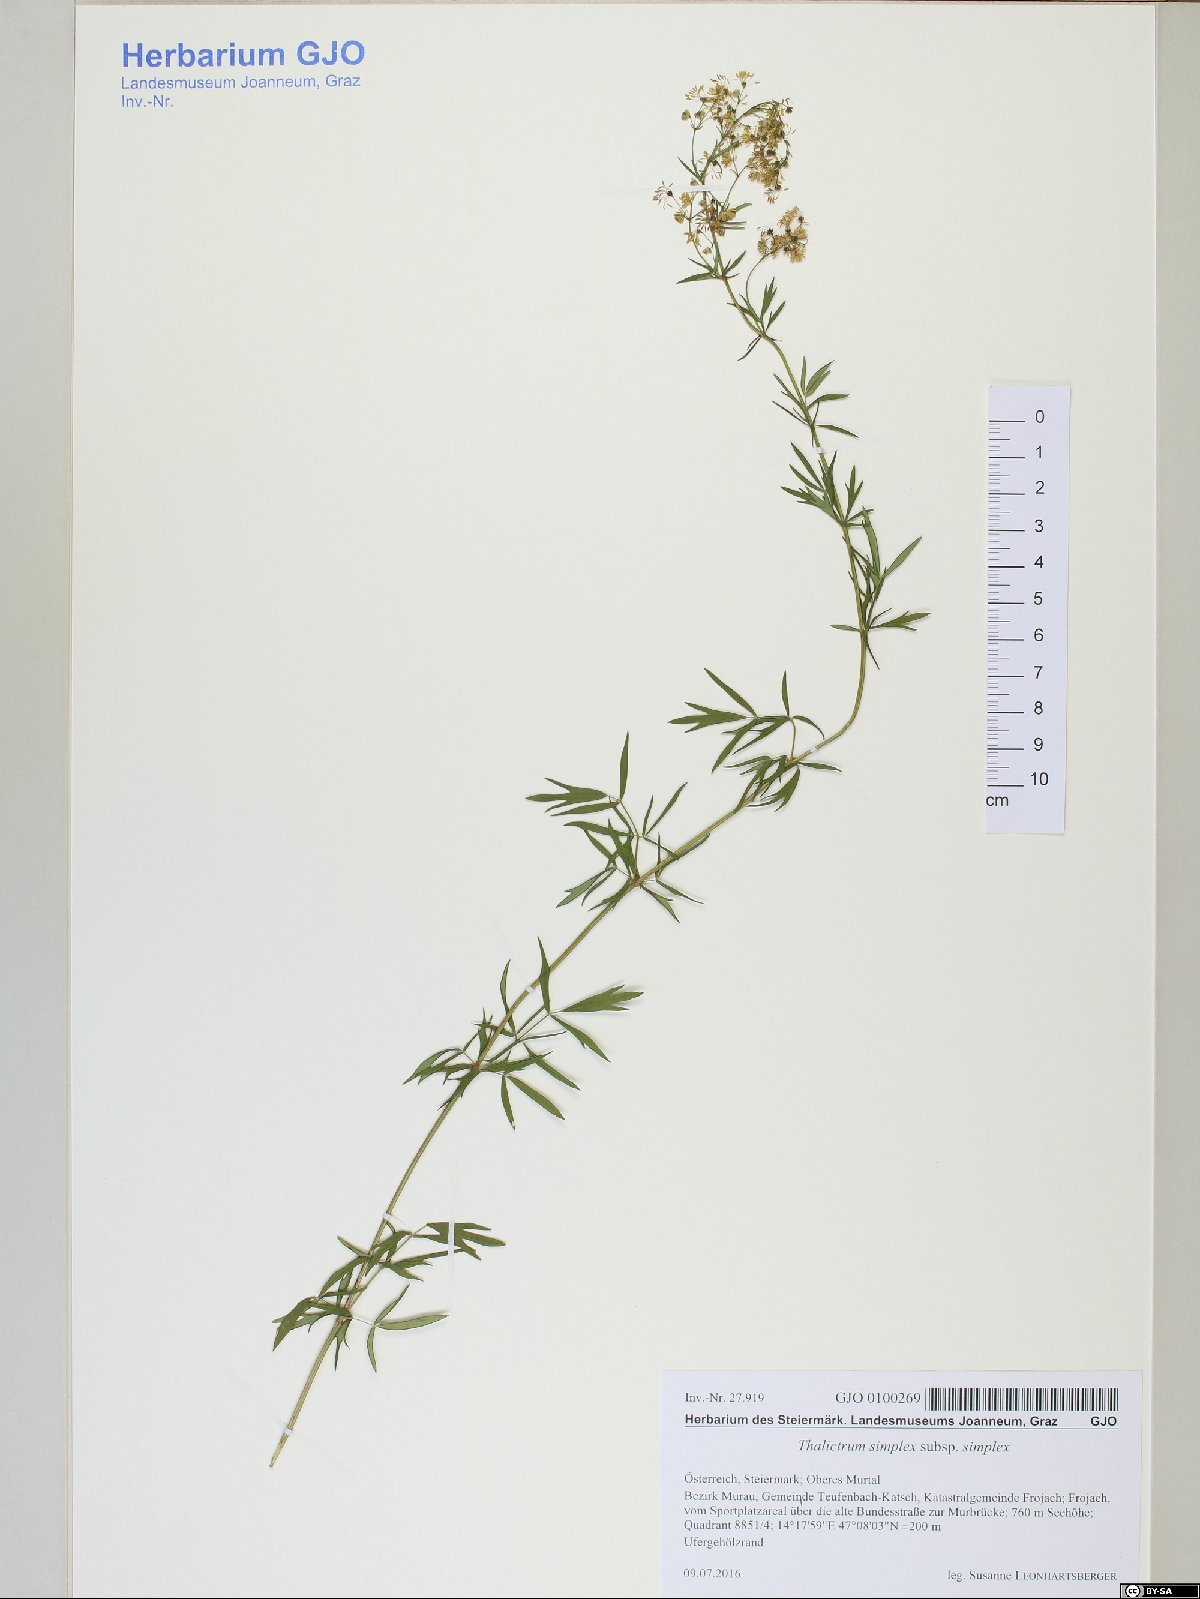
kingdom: Plantae
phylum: Tracheophyta
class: Magnoliopsida
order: Ranunculales
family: Ranunculaceae
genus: Thalictrum
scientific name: Thalictrum simplex
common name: Small meadow-rue
